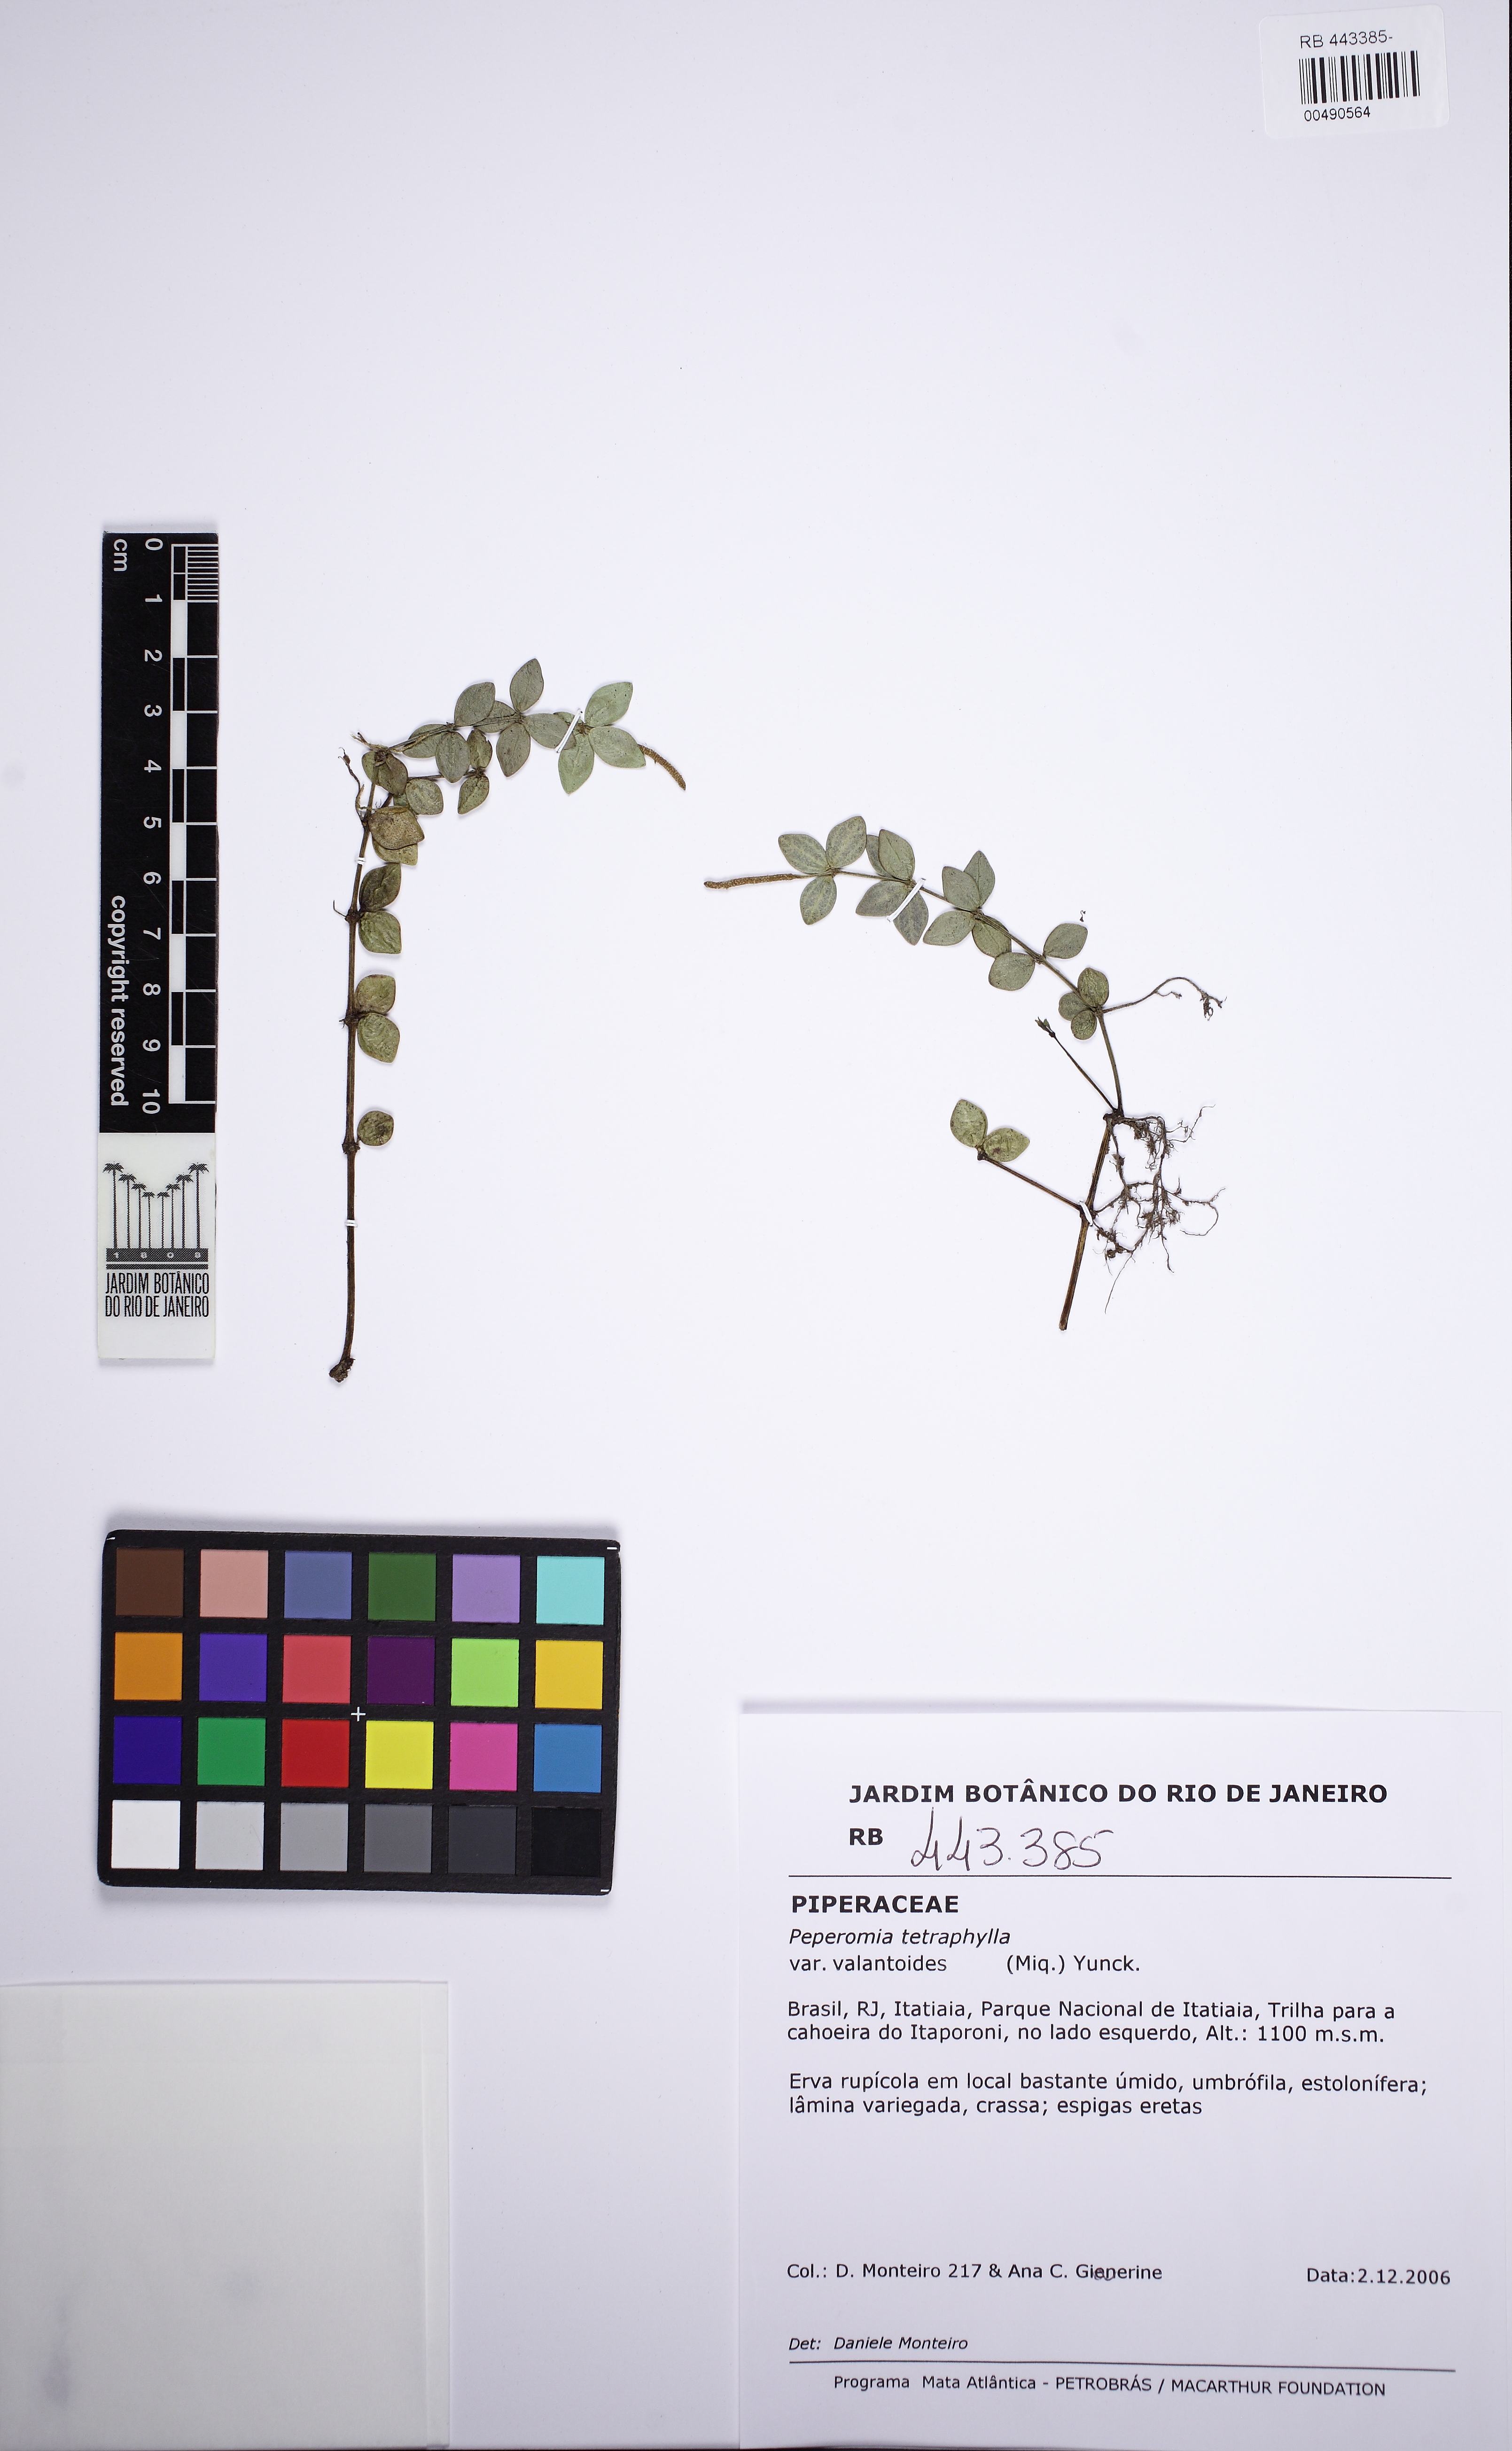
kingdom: Plantae
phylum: Tracheophyta
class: Magnoliopsida
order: Piperales
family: Piperaceae
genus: Peperomia
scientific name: Peperomia tetraphylla
